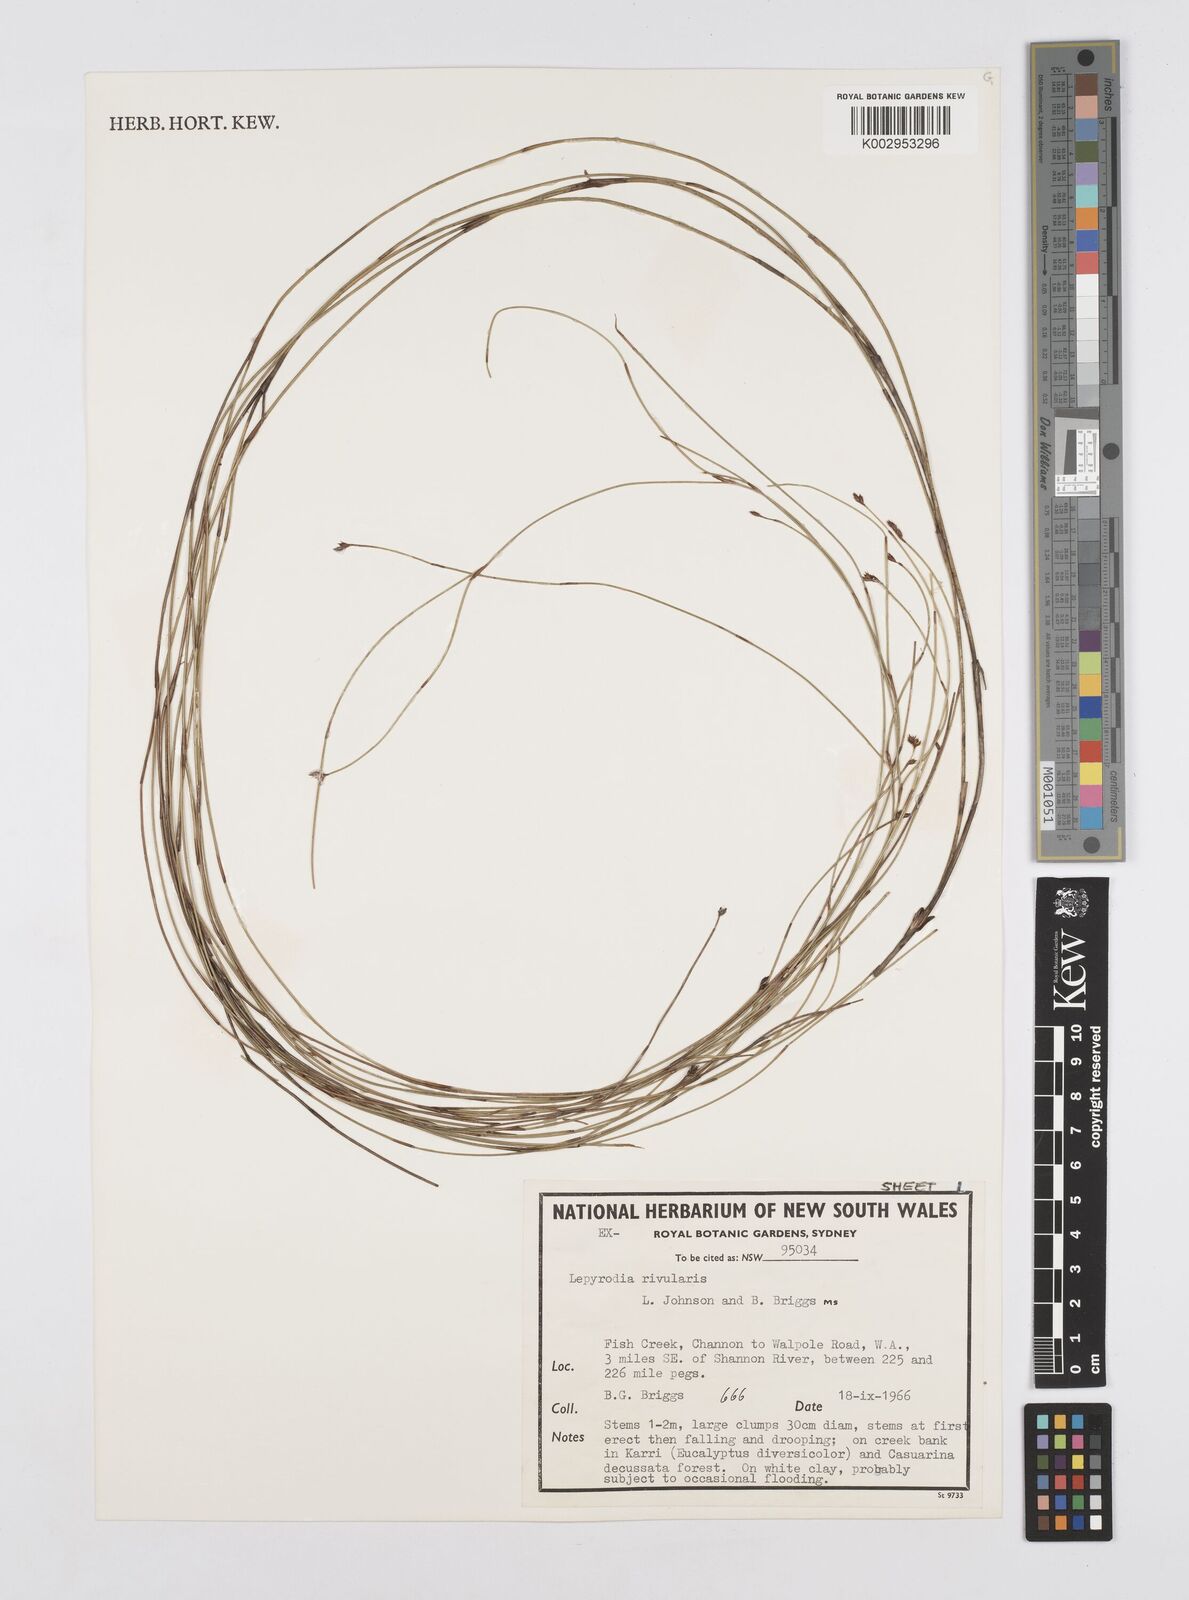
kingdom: Plantae
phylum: Tracheophyta
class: Liliopsida
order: Poales
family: Restionaceae
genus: Sporadanthus
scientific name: Sporadanthus rivularis
